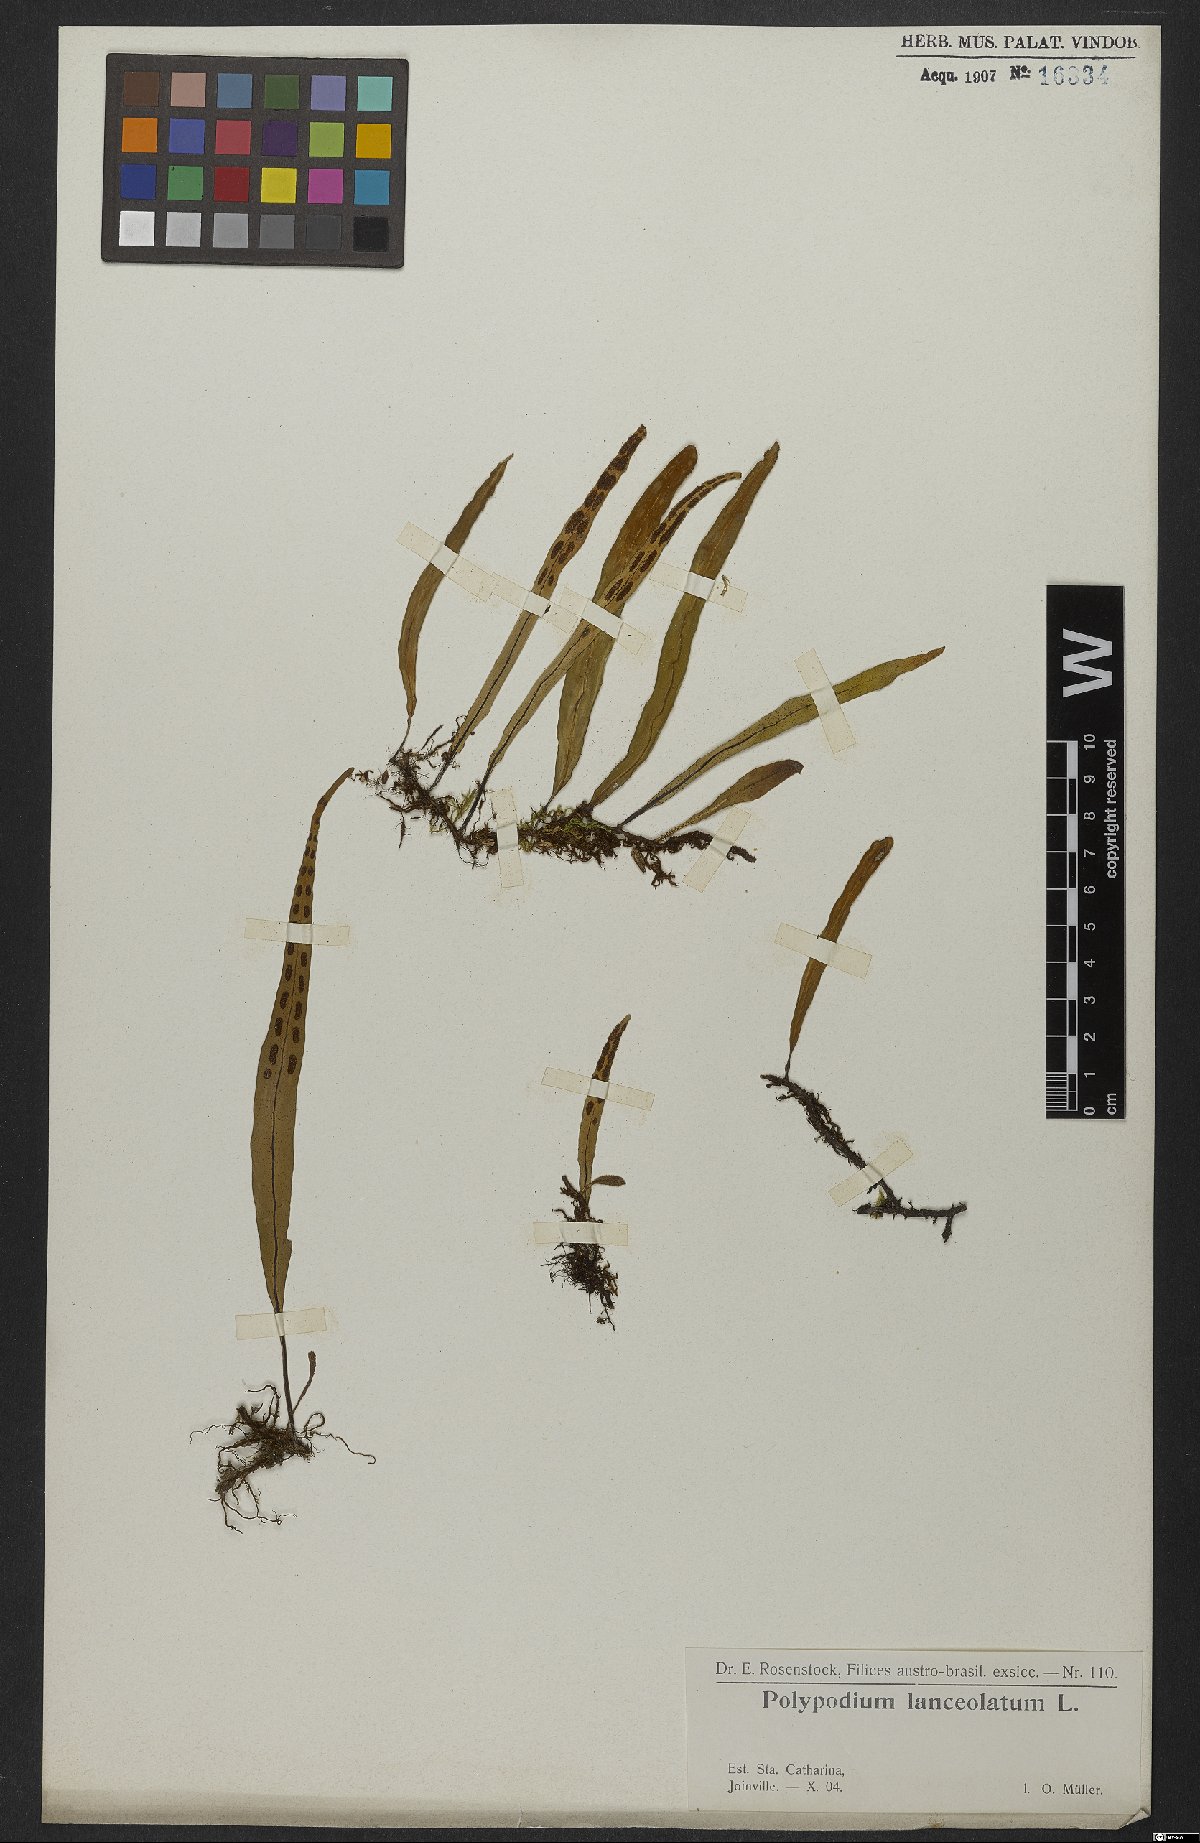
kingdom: Plantae
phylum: Tracheophyta
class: Polypodiopsida
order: Polypodiales
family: Polypodiaceae
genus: Pleopeltis
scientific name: Pleopeltis macrocarpa
